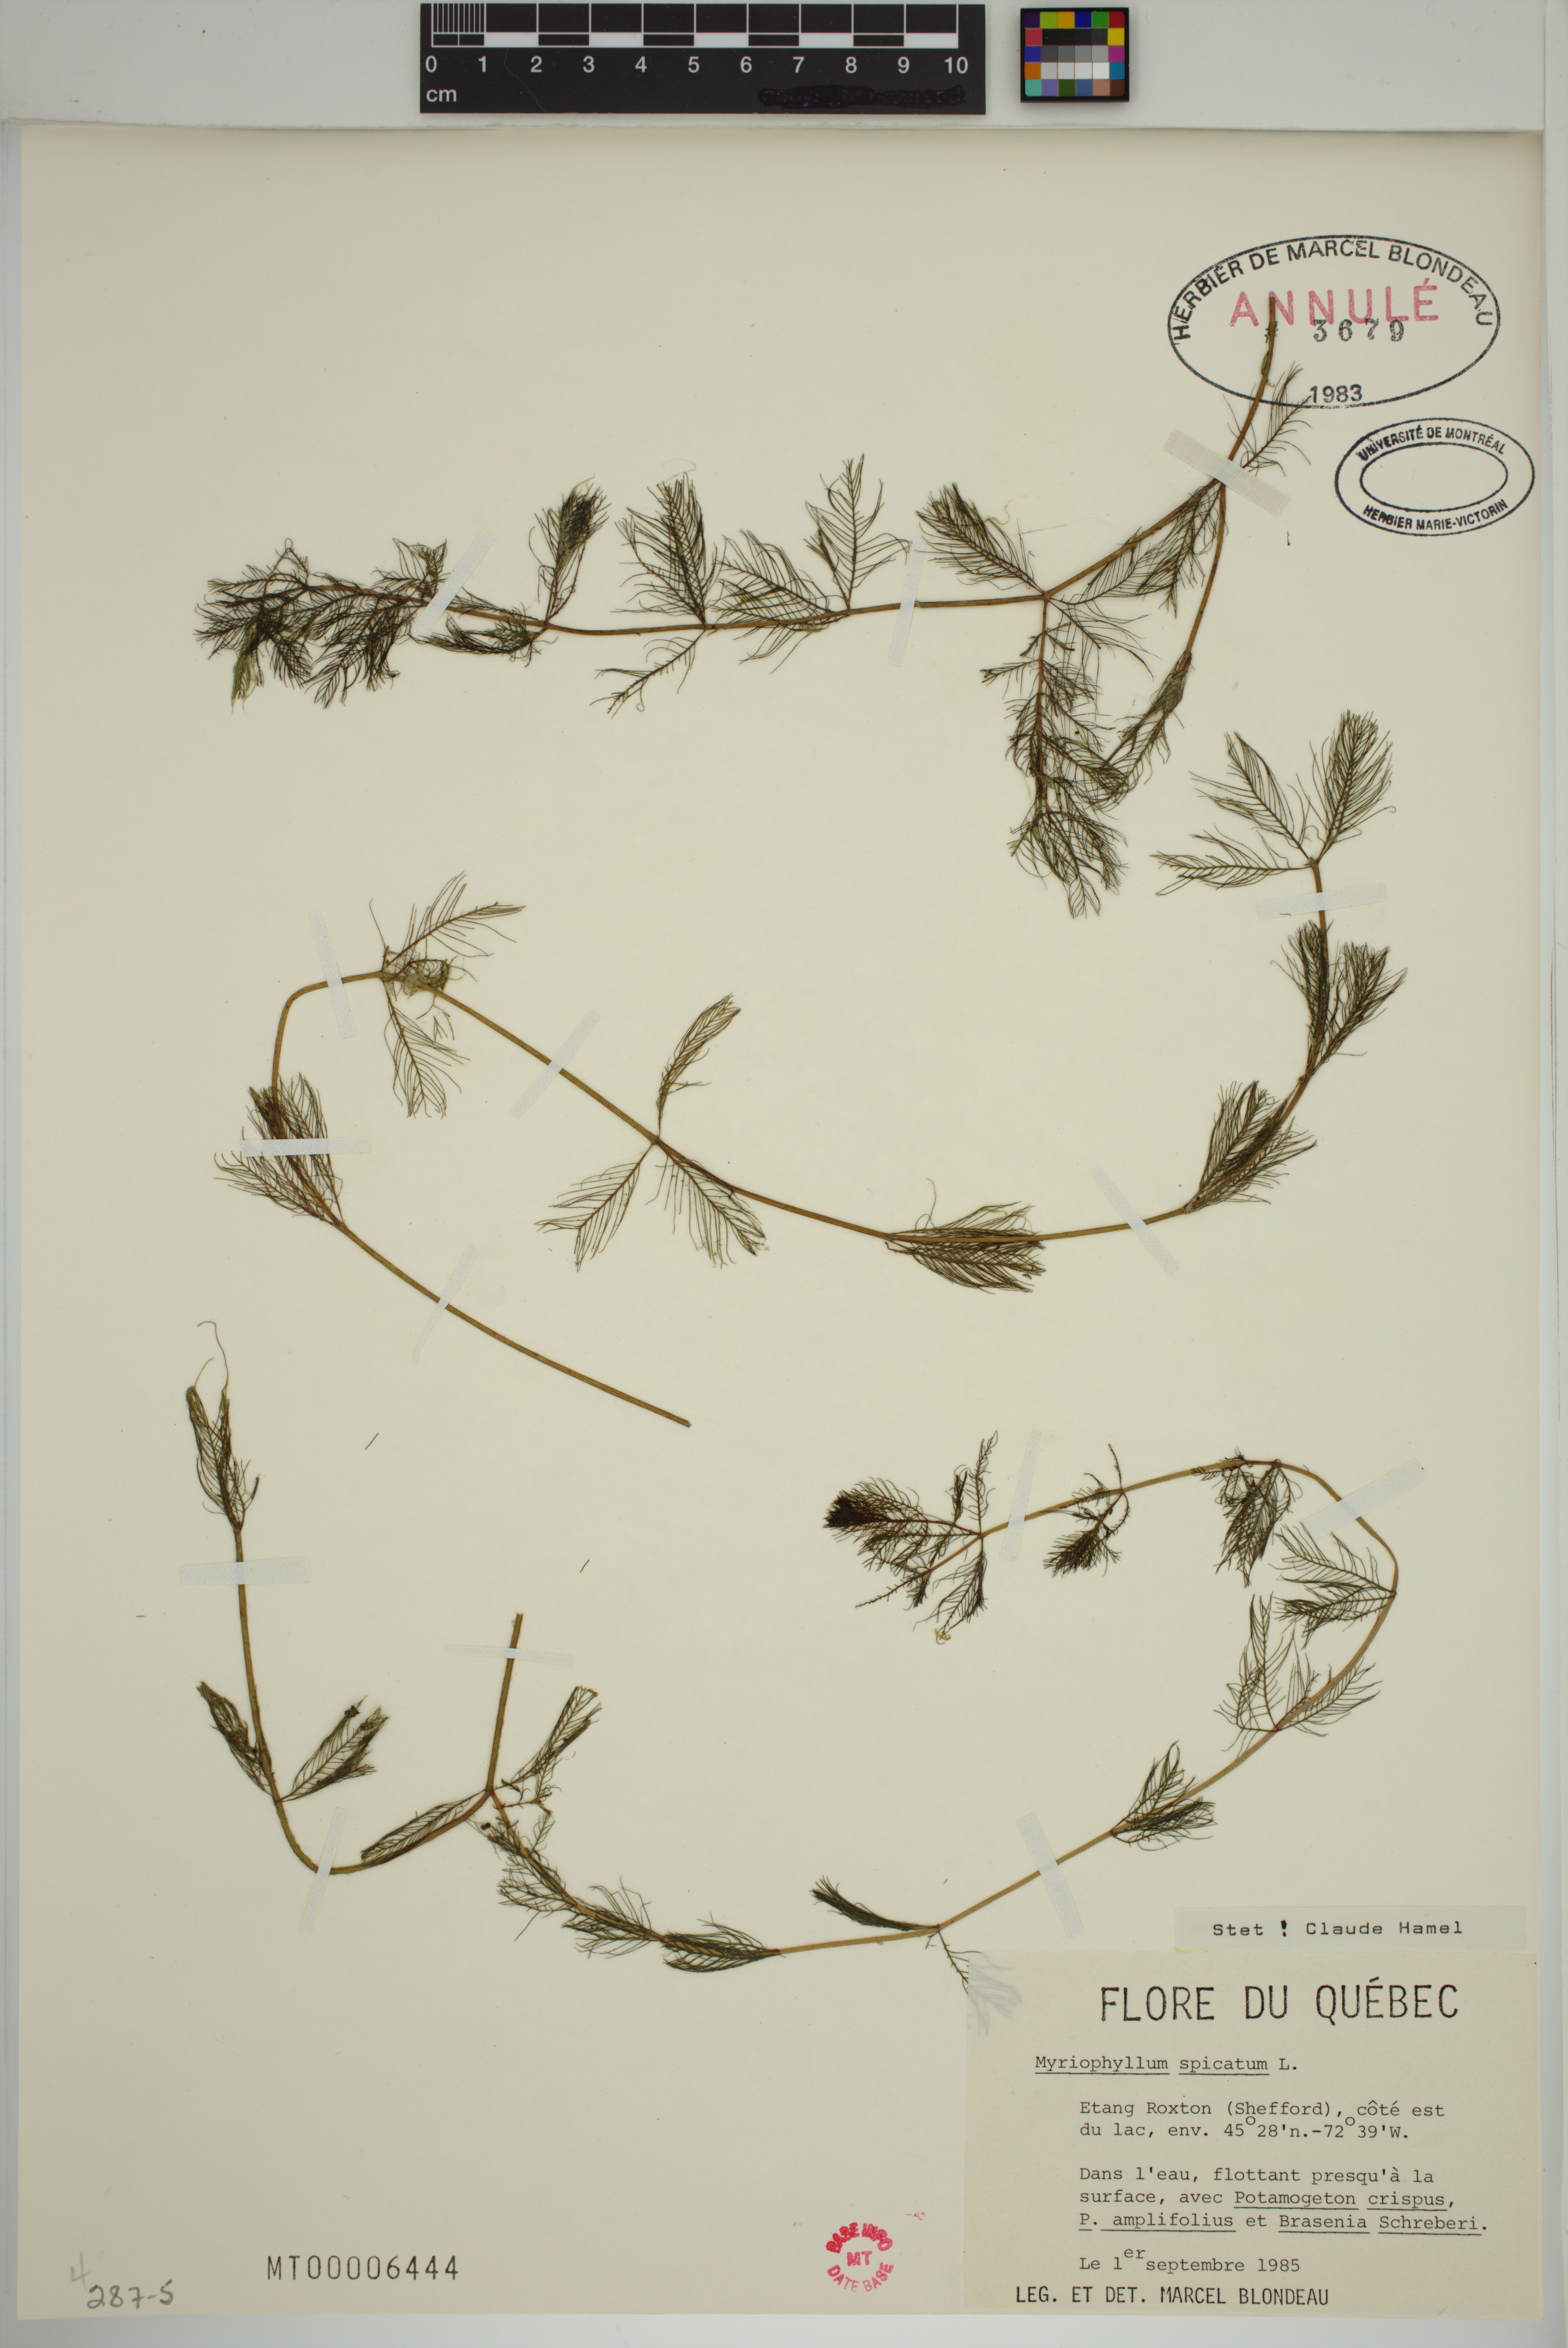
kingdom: Plantae
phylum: Tracheophyta
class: Magnoliopsida
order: Saxifragales
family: Haloragaceae
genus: Myriophyllum
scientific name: Myriophyllum spicatum
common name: Spiked water-milfoil
